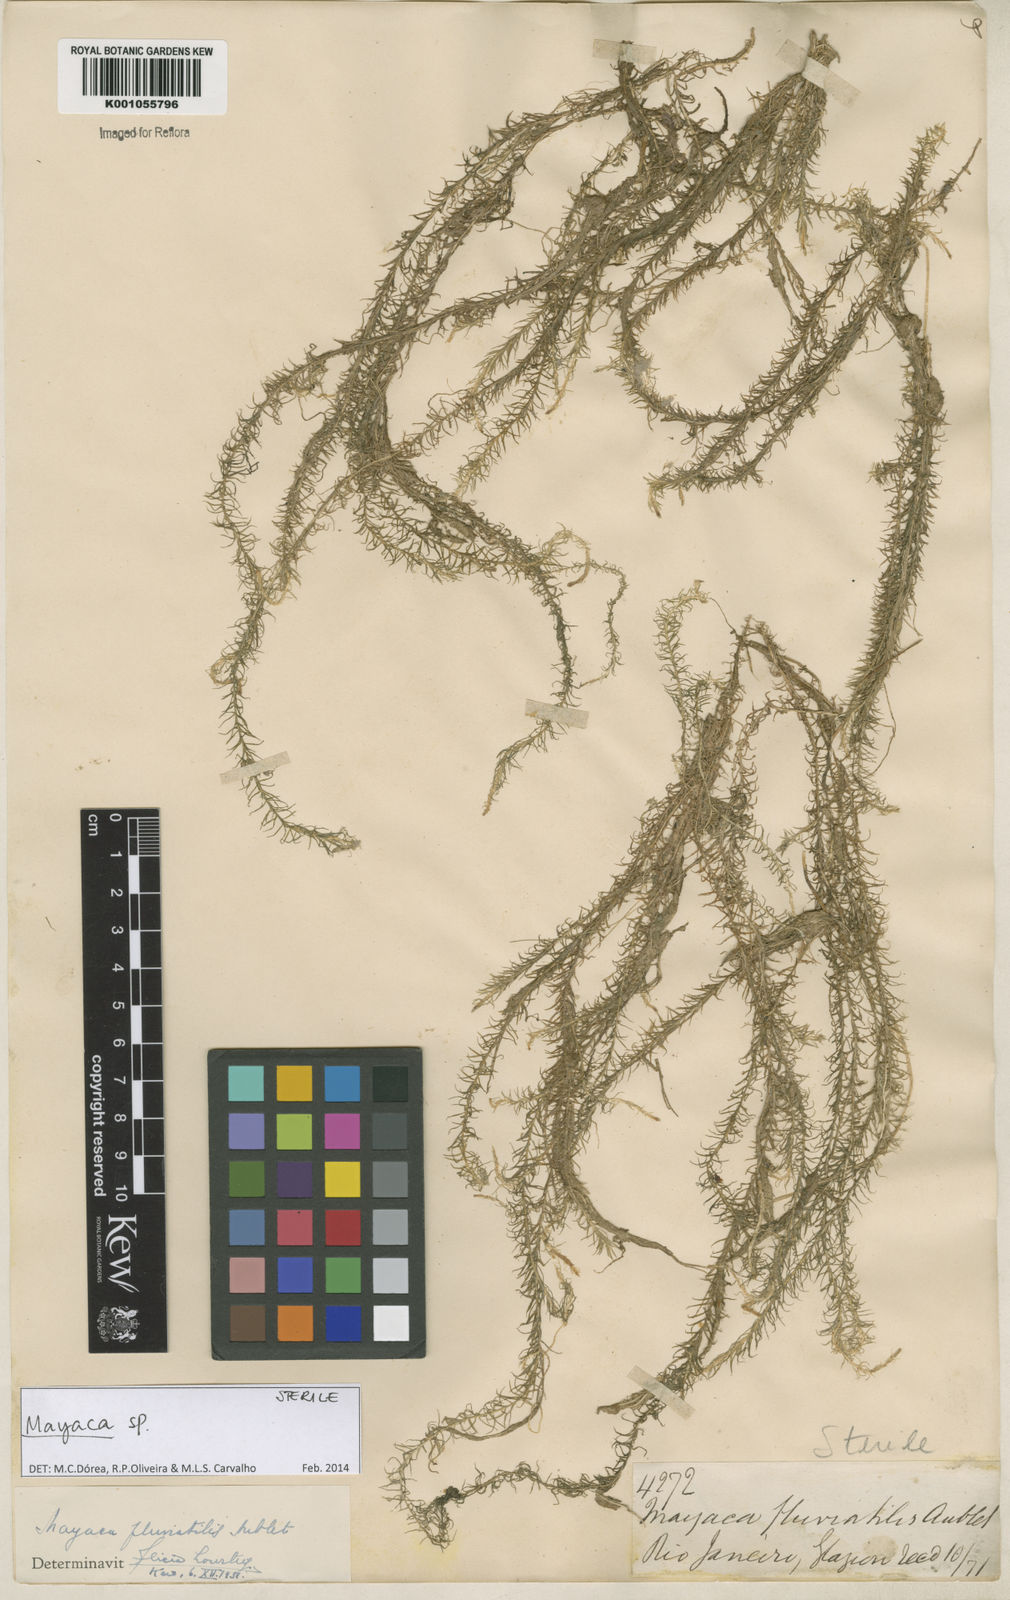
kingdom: Plantae
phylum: Tracheophyta
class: Liliopsida
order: Poales
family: Mayacaceae
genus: Mayaca
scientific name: Mayaca
